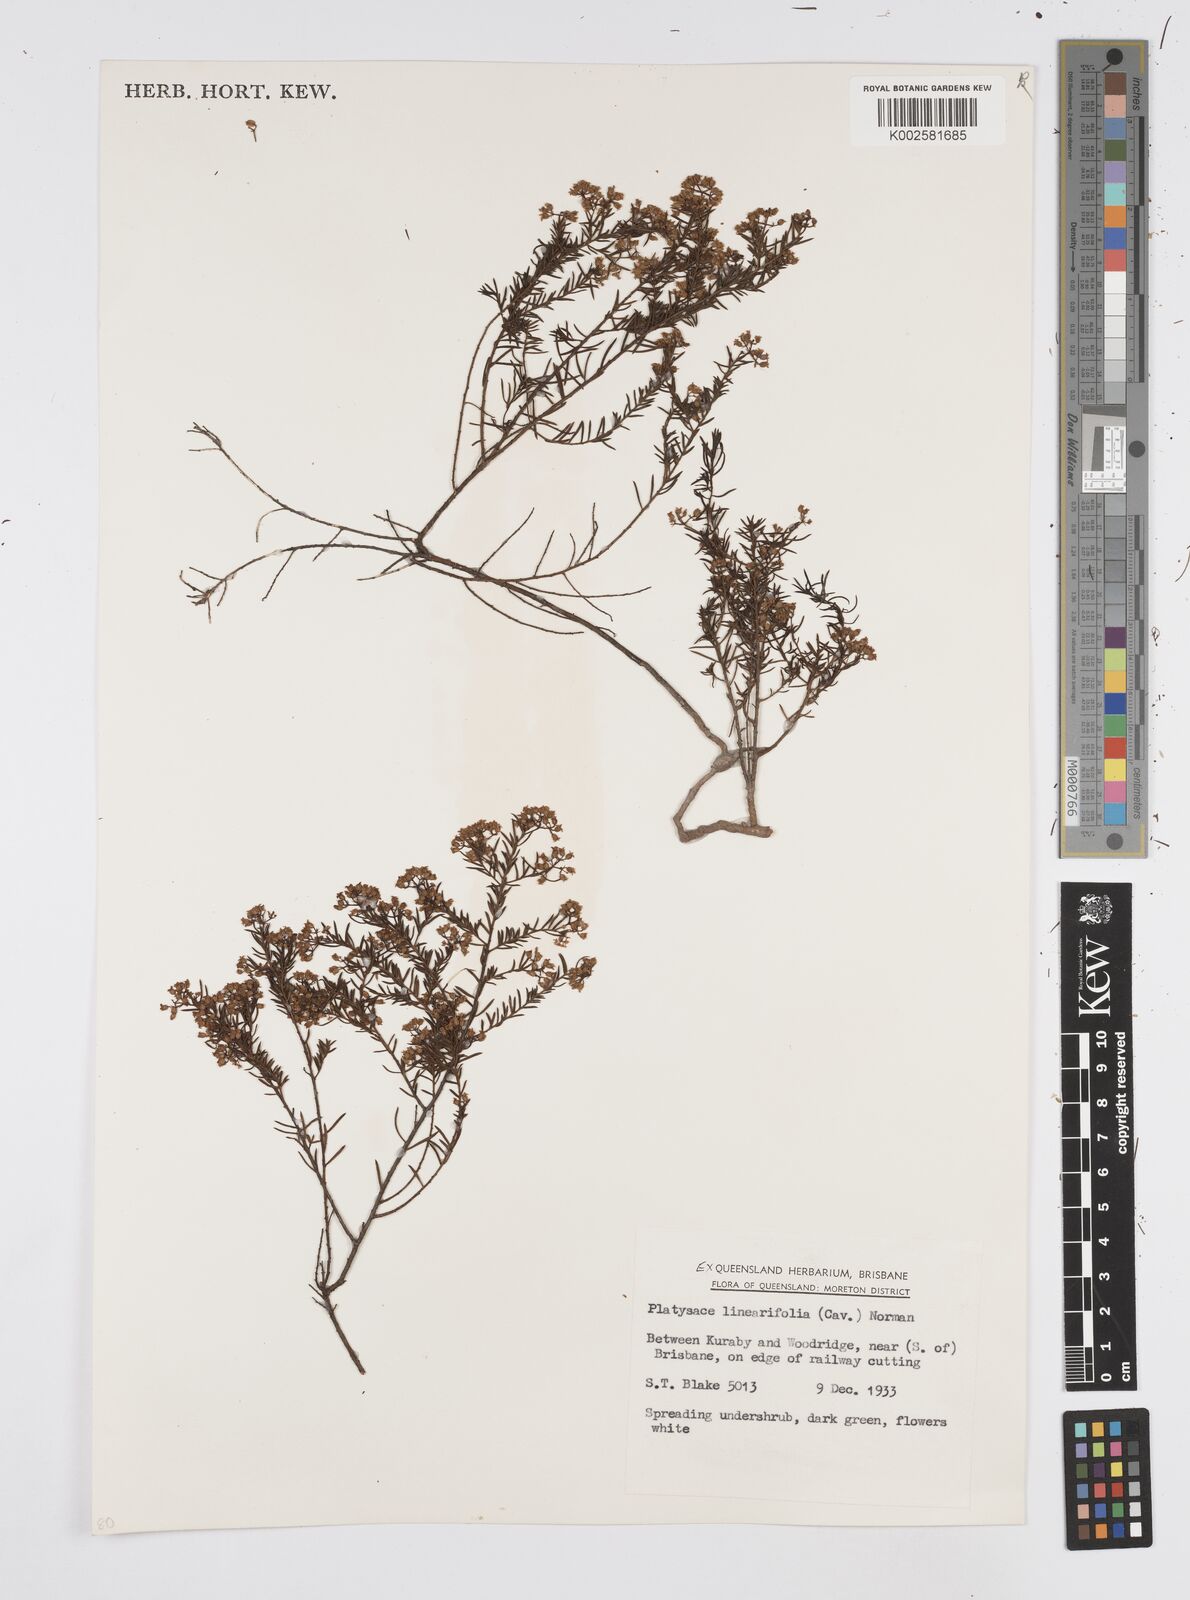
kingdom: Plantae
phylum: Tracheophyta
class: Magnoliopsida
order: Apiales
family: Apiaceae
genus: Platysace
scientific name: Platysace linearifolia
